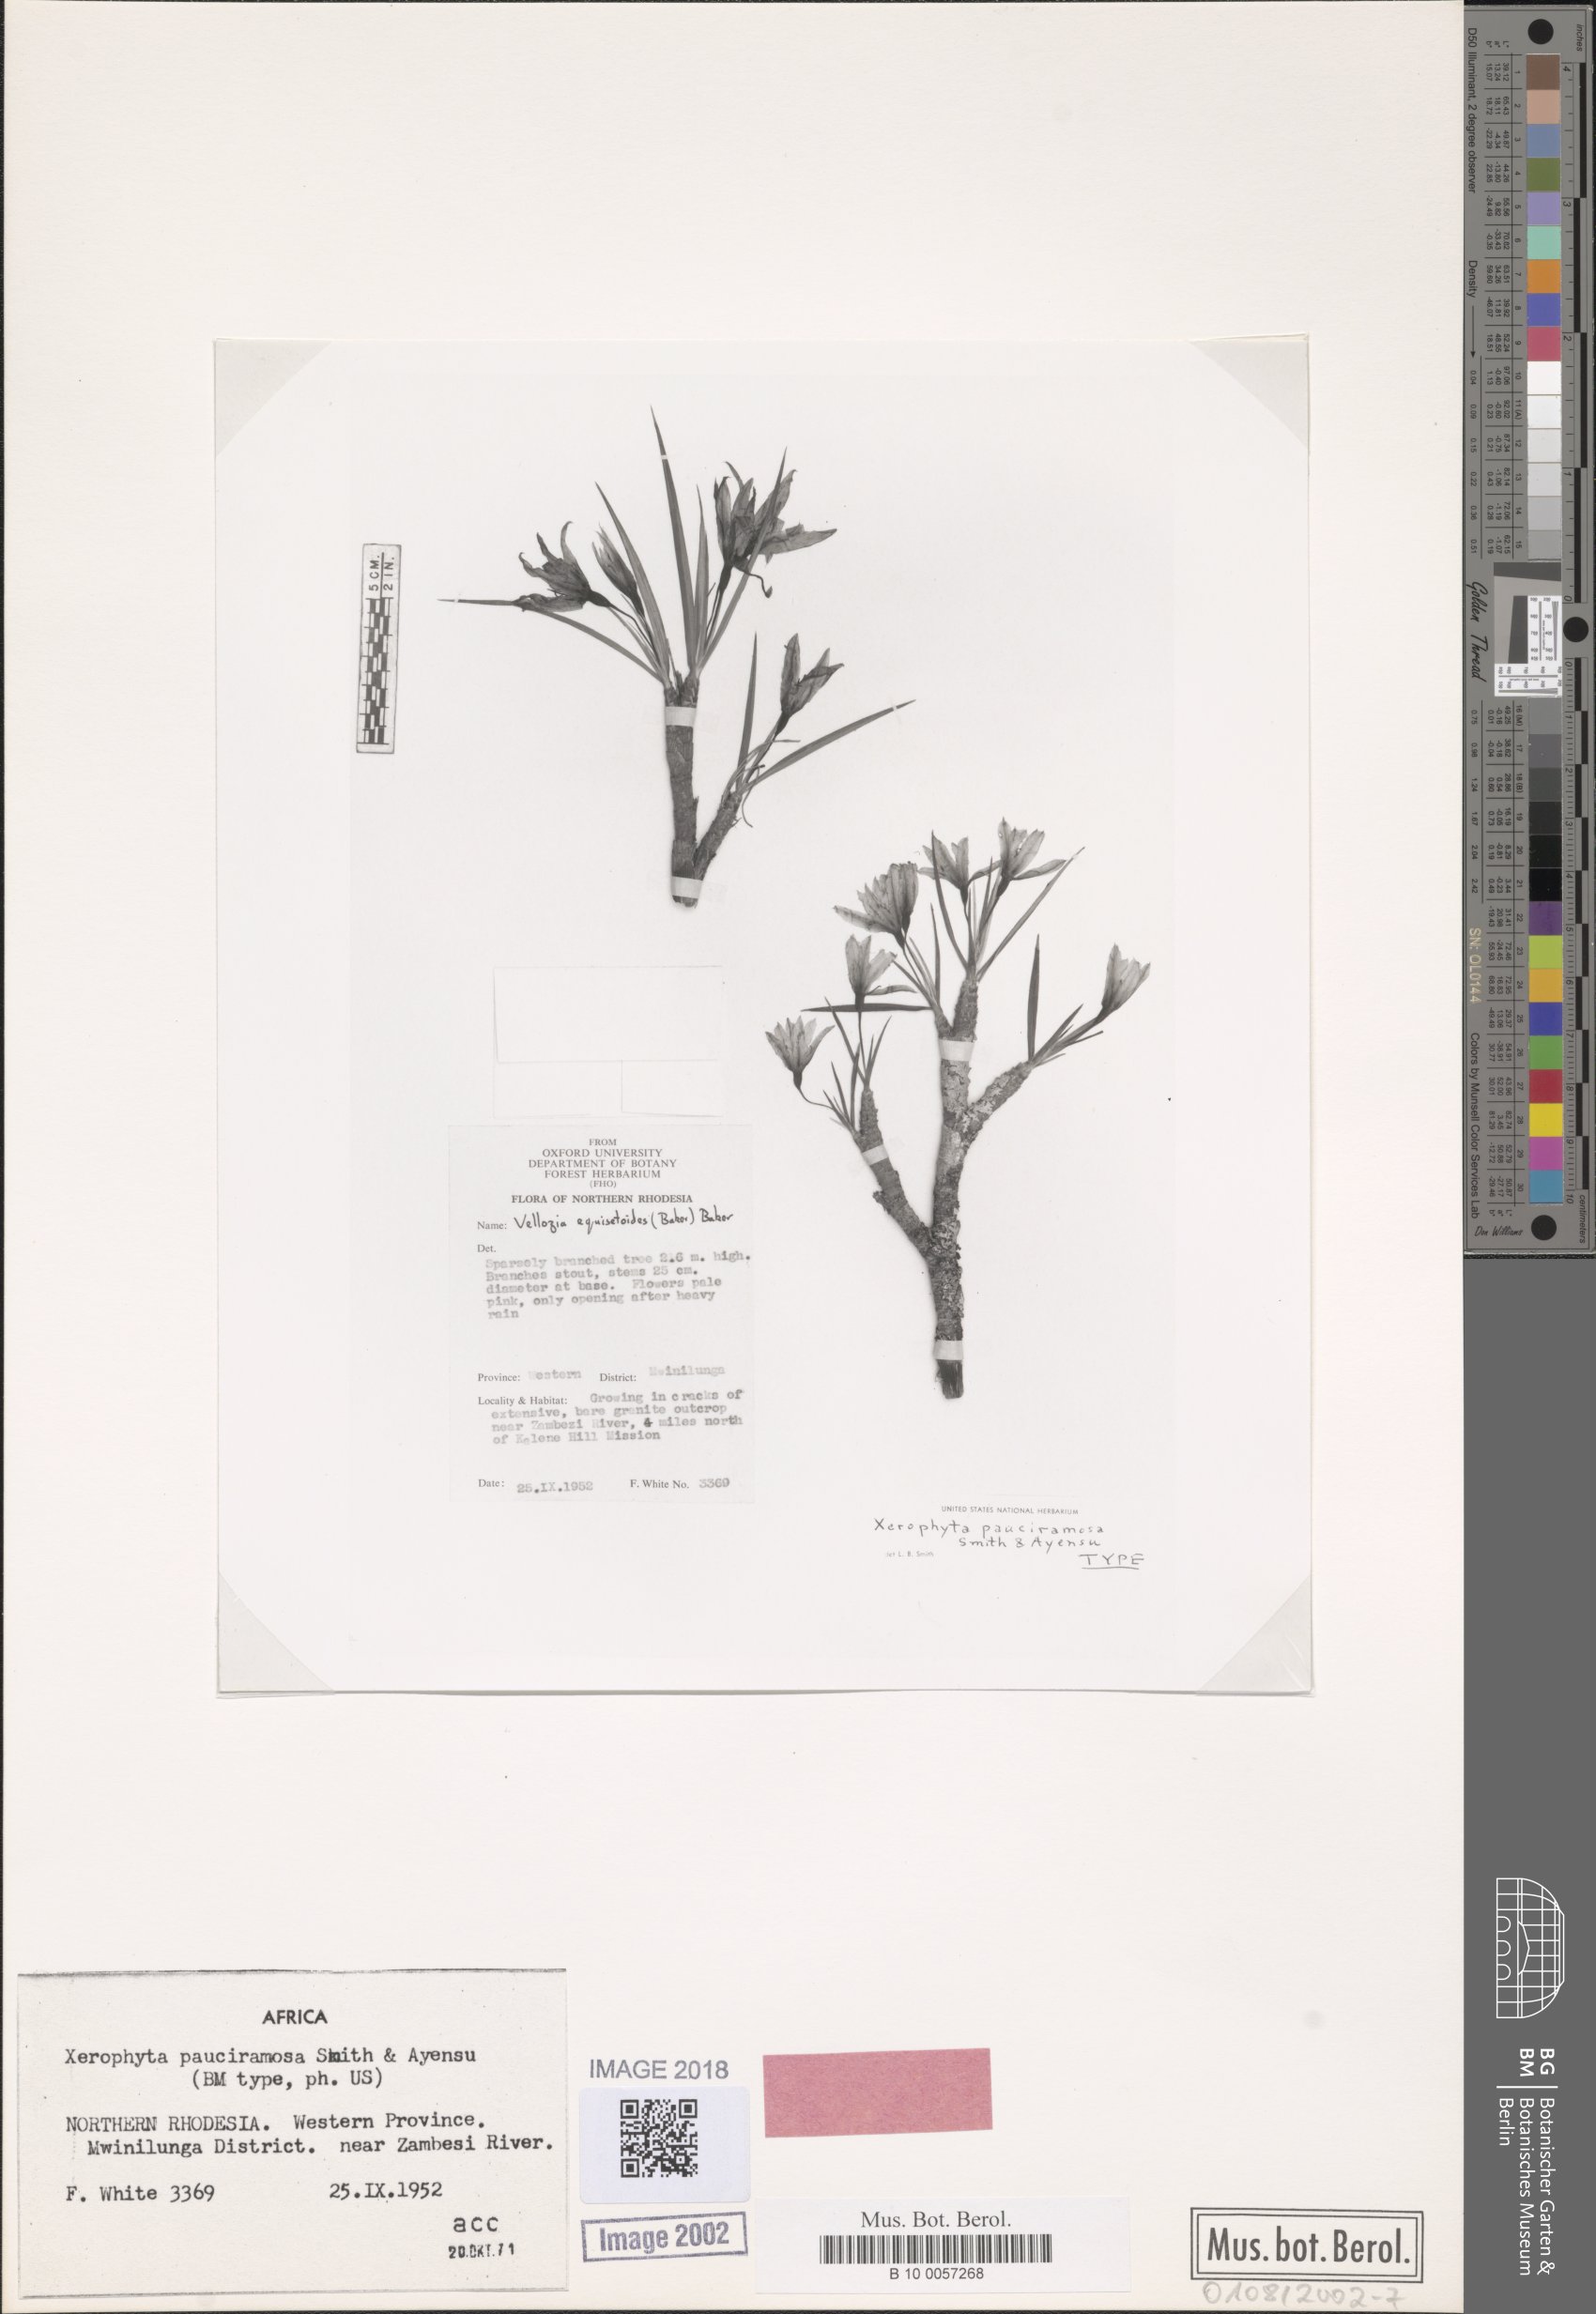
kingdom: Plantae
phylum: Tracheophyta
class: Liliopsida
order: Pandanales
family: Velloziaceae
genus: Xerophyta
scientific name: Xerophyta pauciramosa
